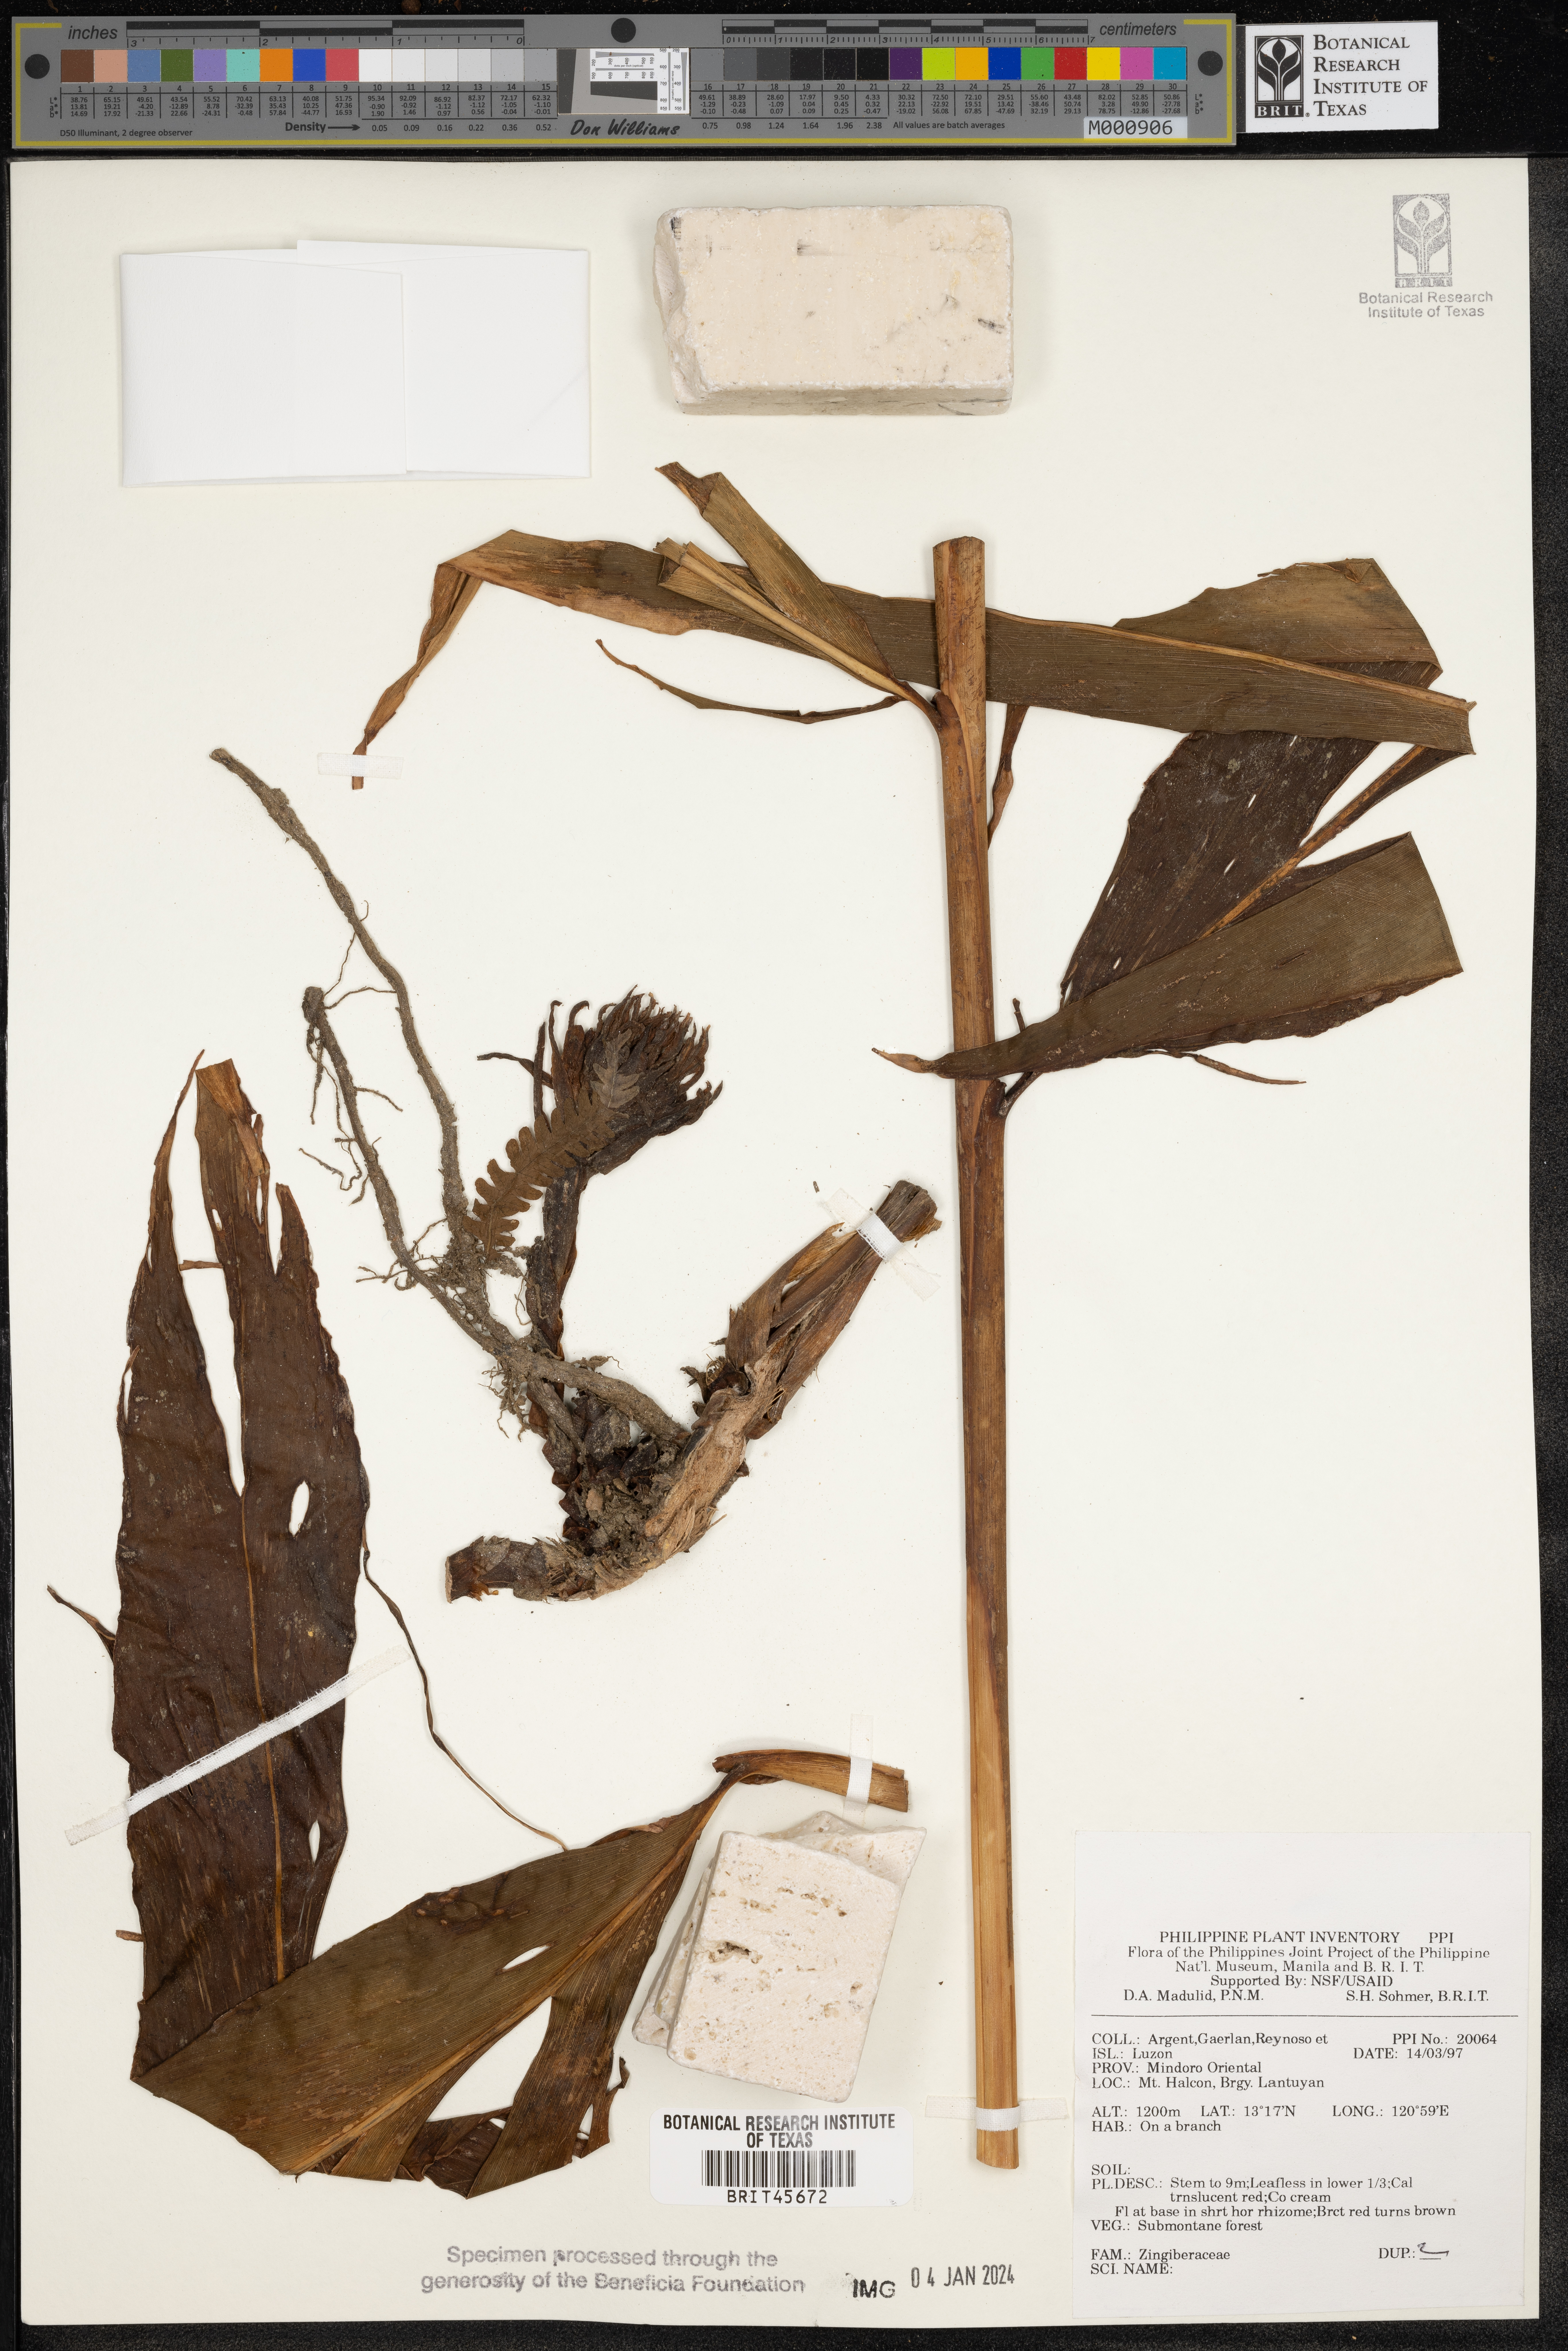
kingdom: Plantae
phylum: Tracheophyta
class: Liliopsida
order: Zingiberales
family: Zingiberaceae
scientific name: Zingiberaceae
